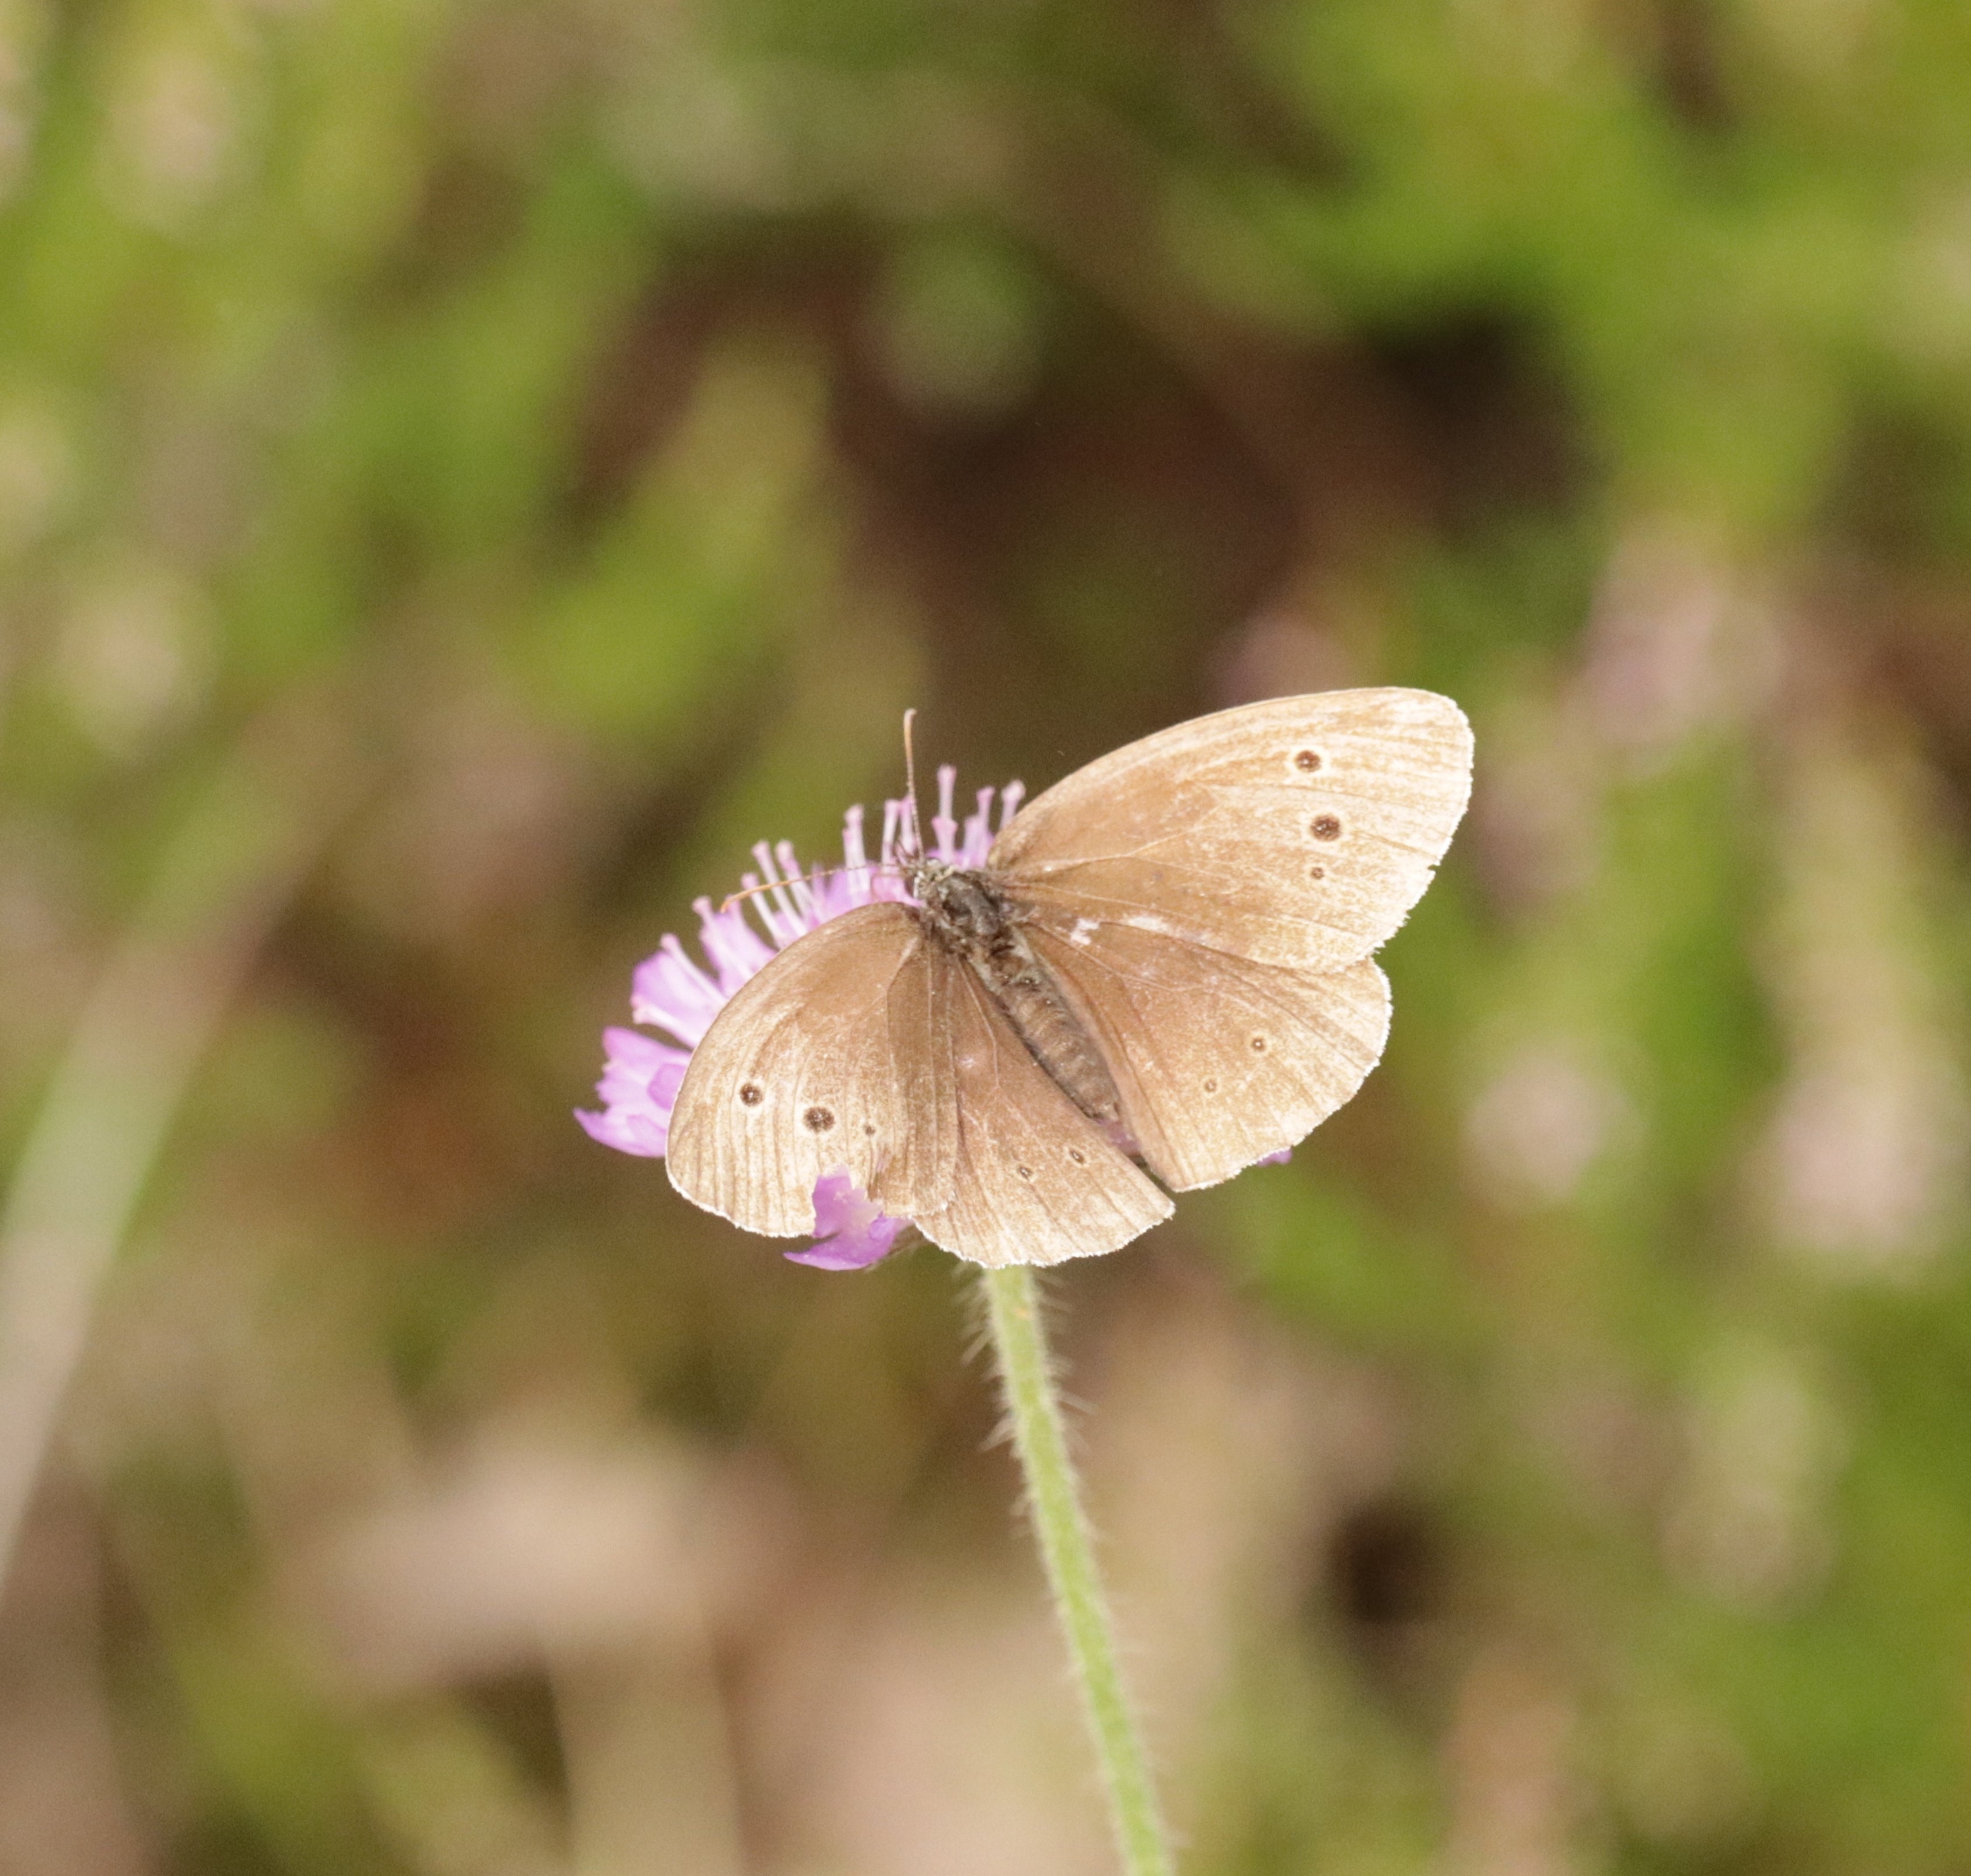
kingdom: Animalia
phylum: Arthropoda
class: Insecta
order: Lepidoptera
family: Nymphalidae
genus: Aphantopus
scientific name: Aphantopus hyperantus
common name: Engrandøje
